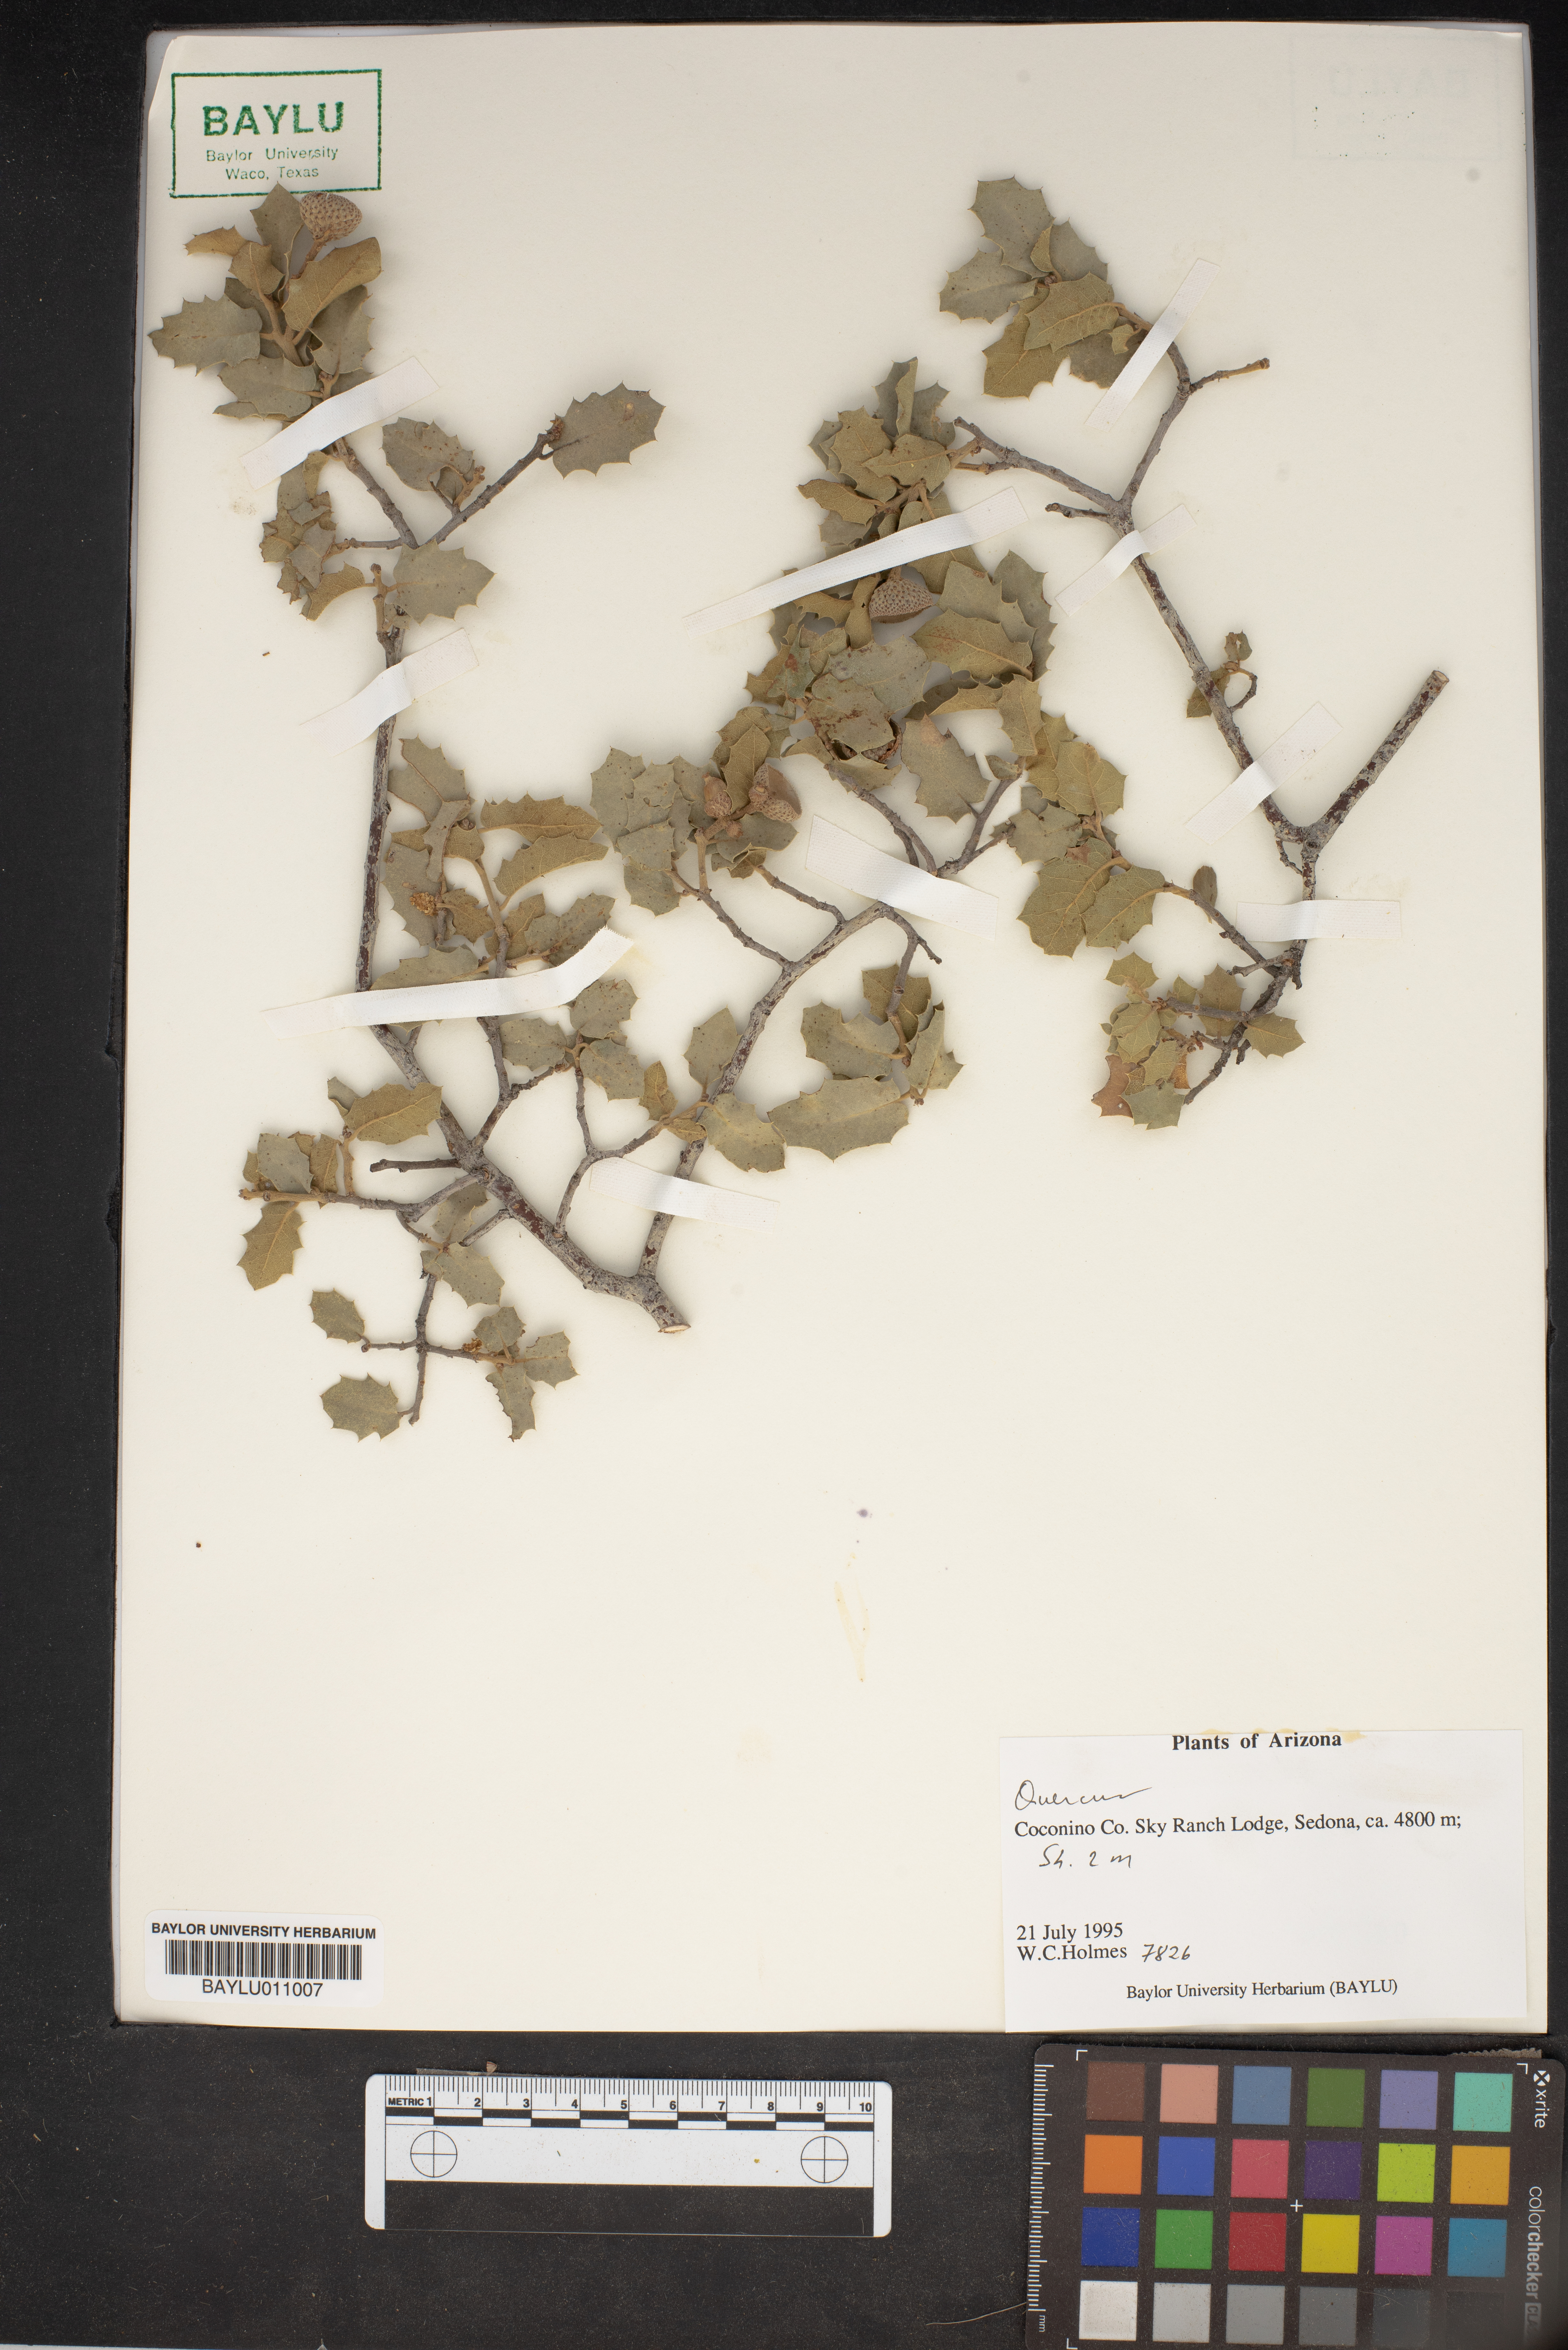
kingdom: Plantae
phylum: Tracheophyta
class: Magnoliopsida
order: Fagales
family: Fagaceae
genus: Quercus
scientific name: Quercus
